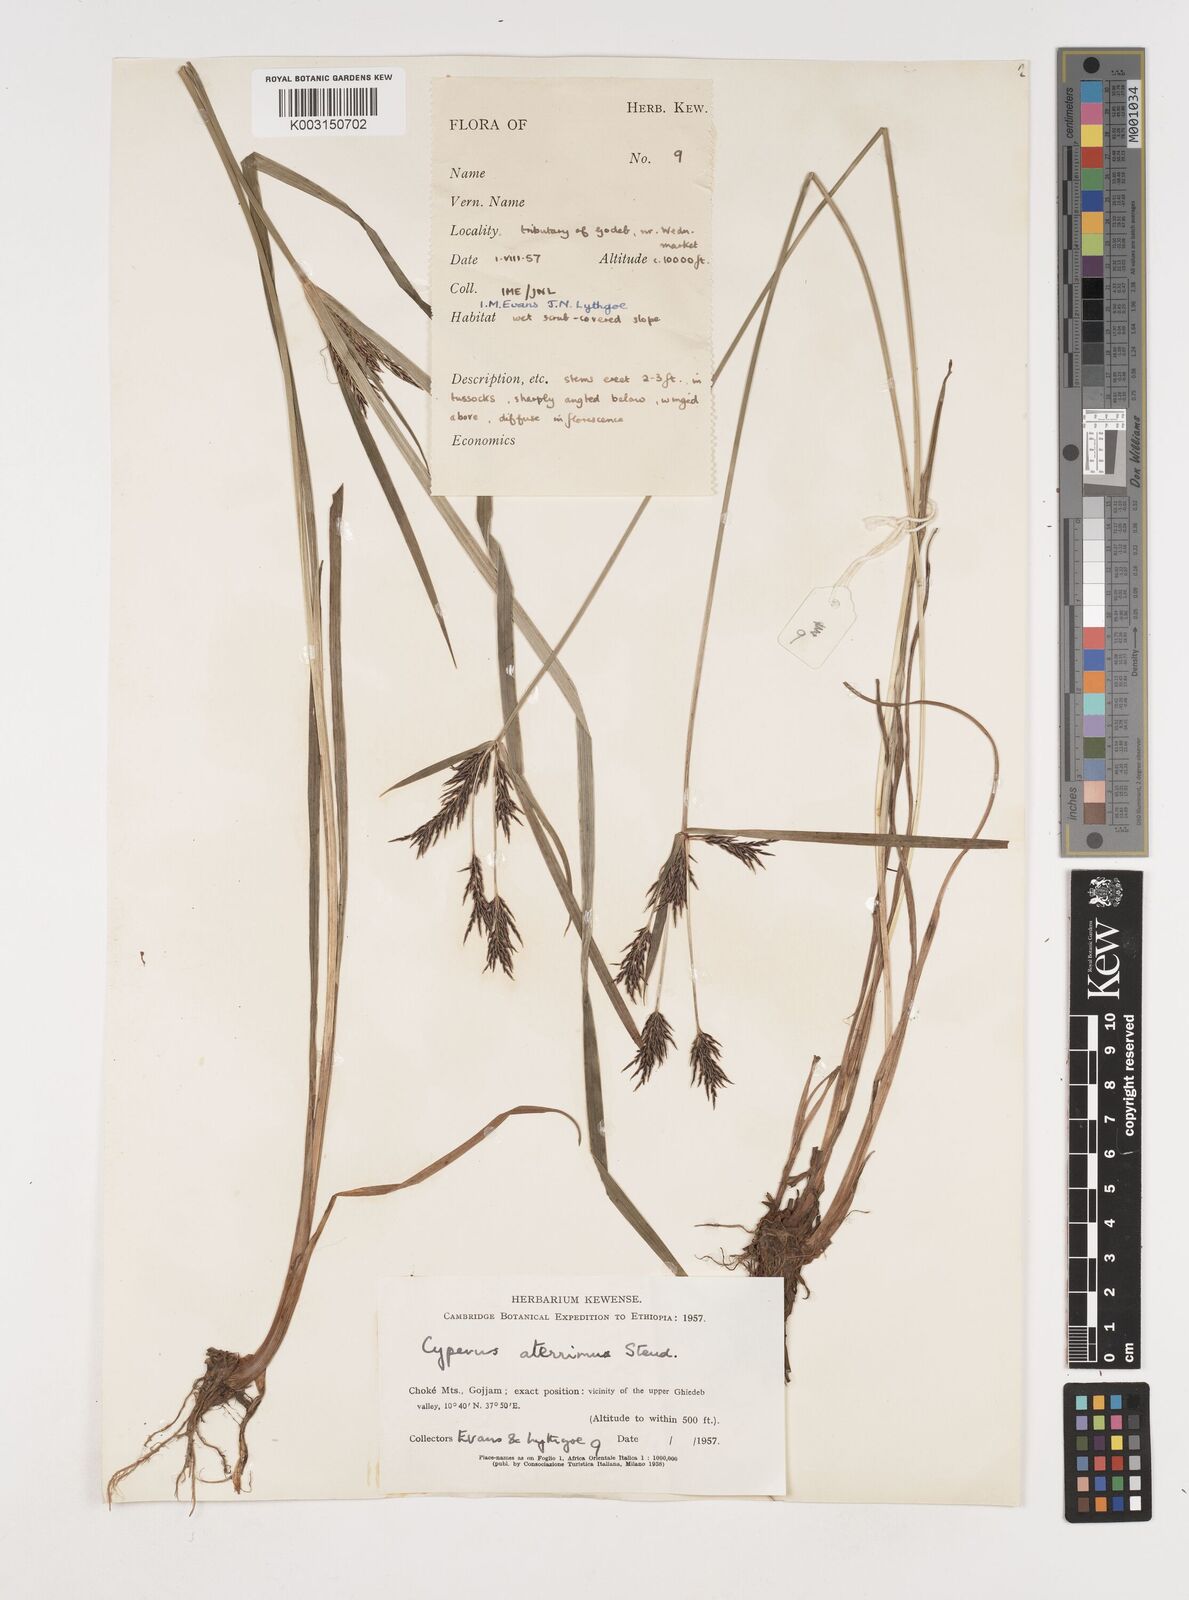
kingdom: Plantae
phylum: Tracheophyta
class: Liliopsida
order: Poales
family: Cyperaceae
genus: Cyperus
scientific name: Cyperus aterrimus
